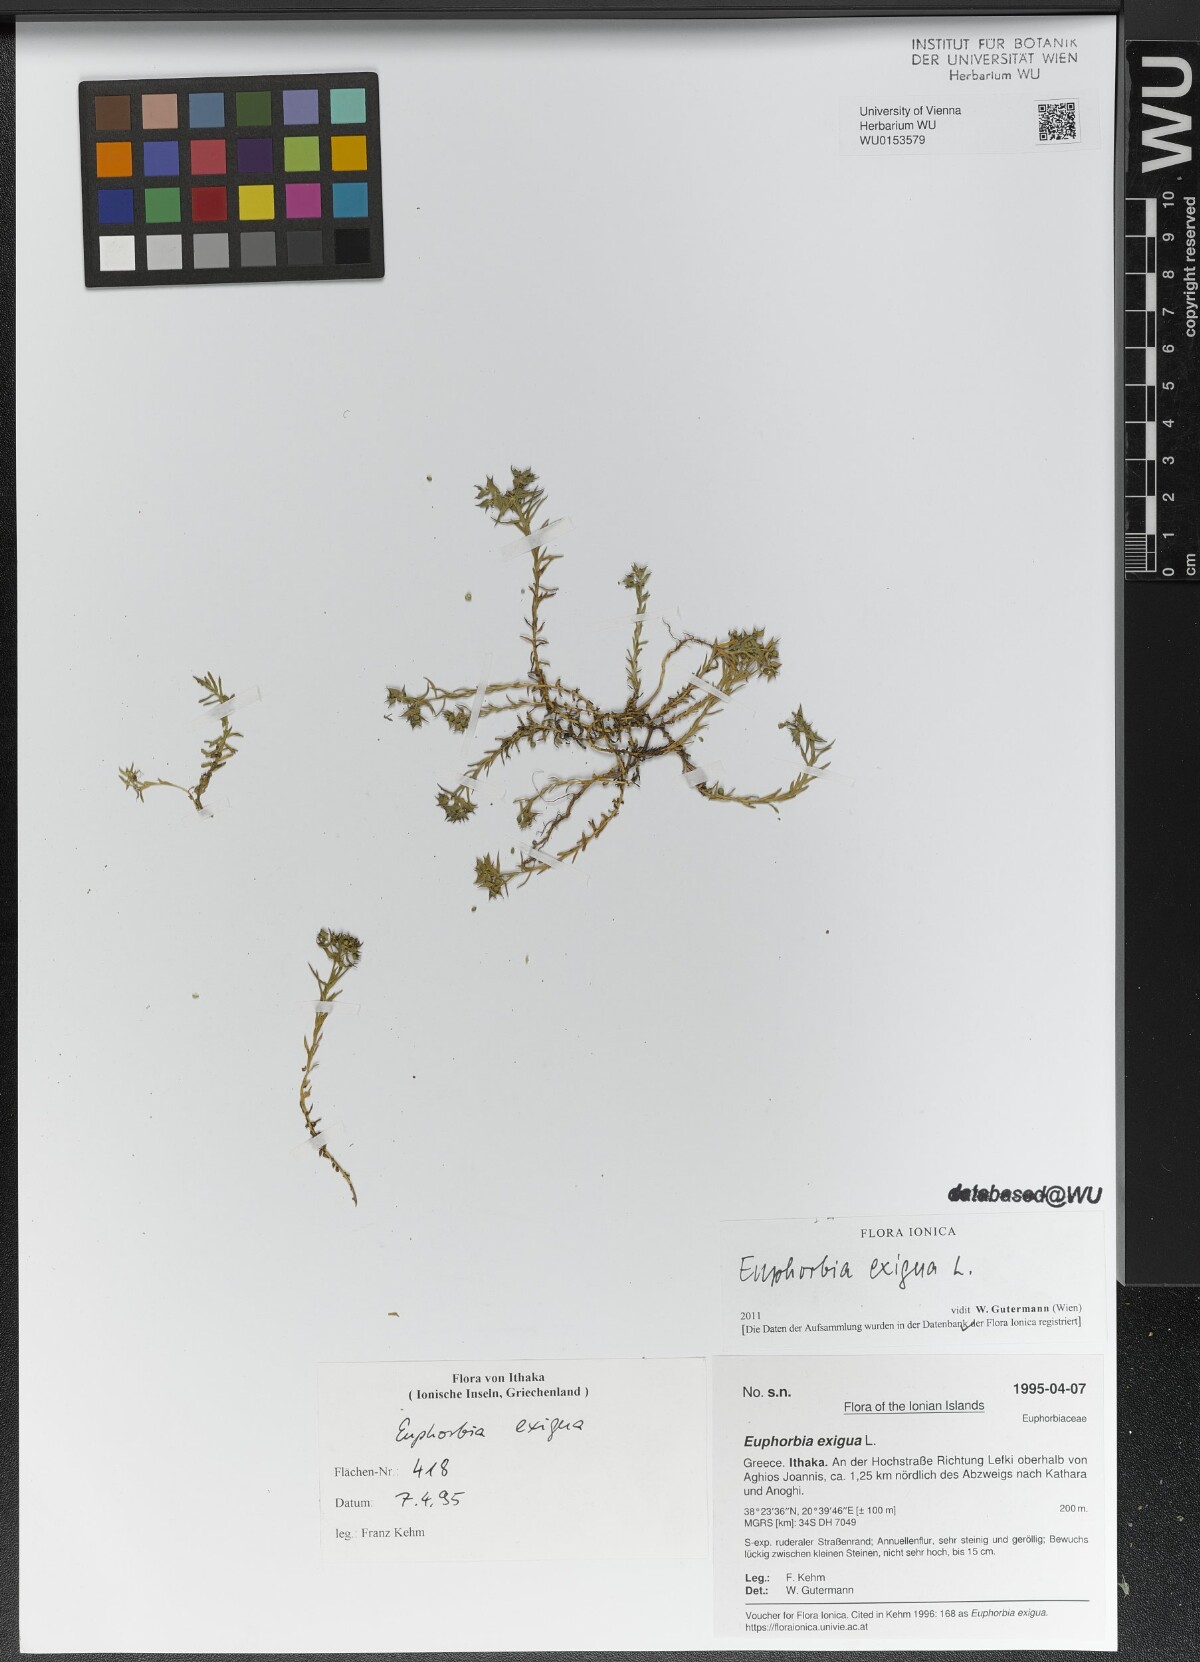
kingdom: Plantae
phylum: Tracheophyta
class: Magnoliopsida
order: Malpighiales
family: Euphorbiaceae
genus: Euphorbia
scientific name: Euphorbia exigua
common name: Dwarf spurge
